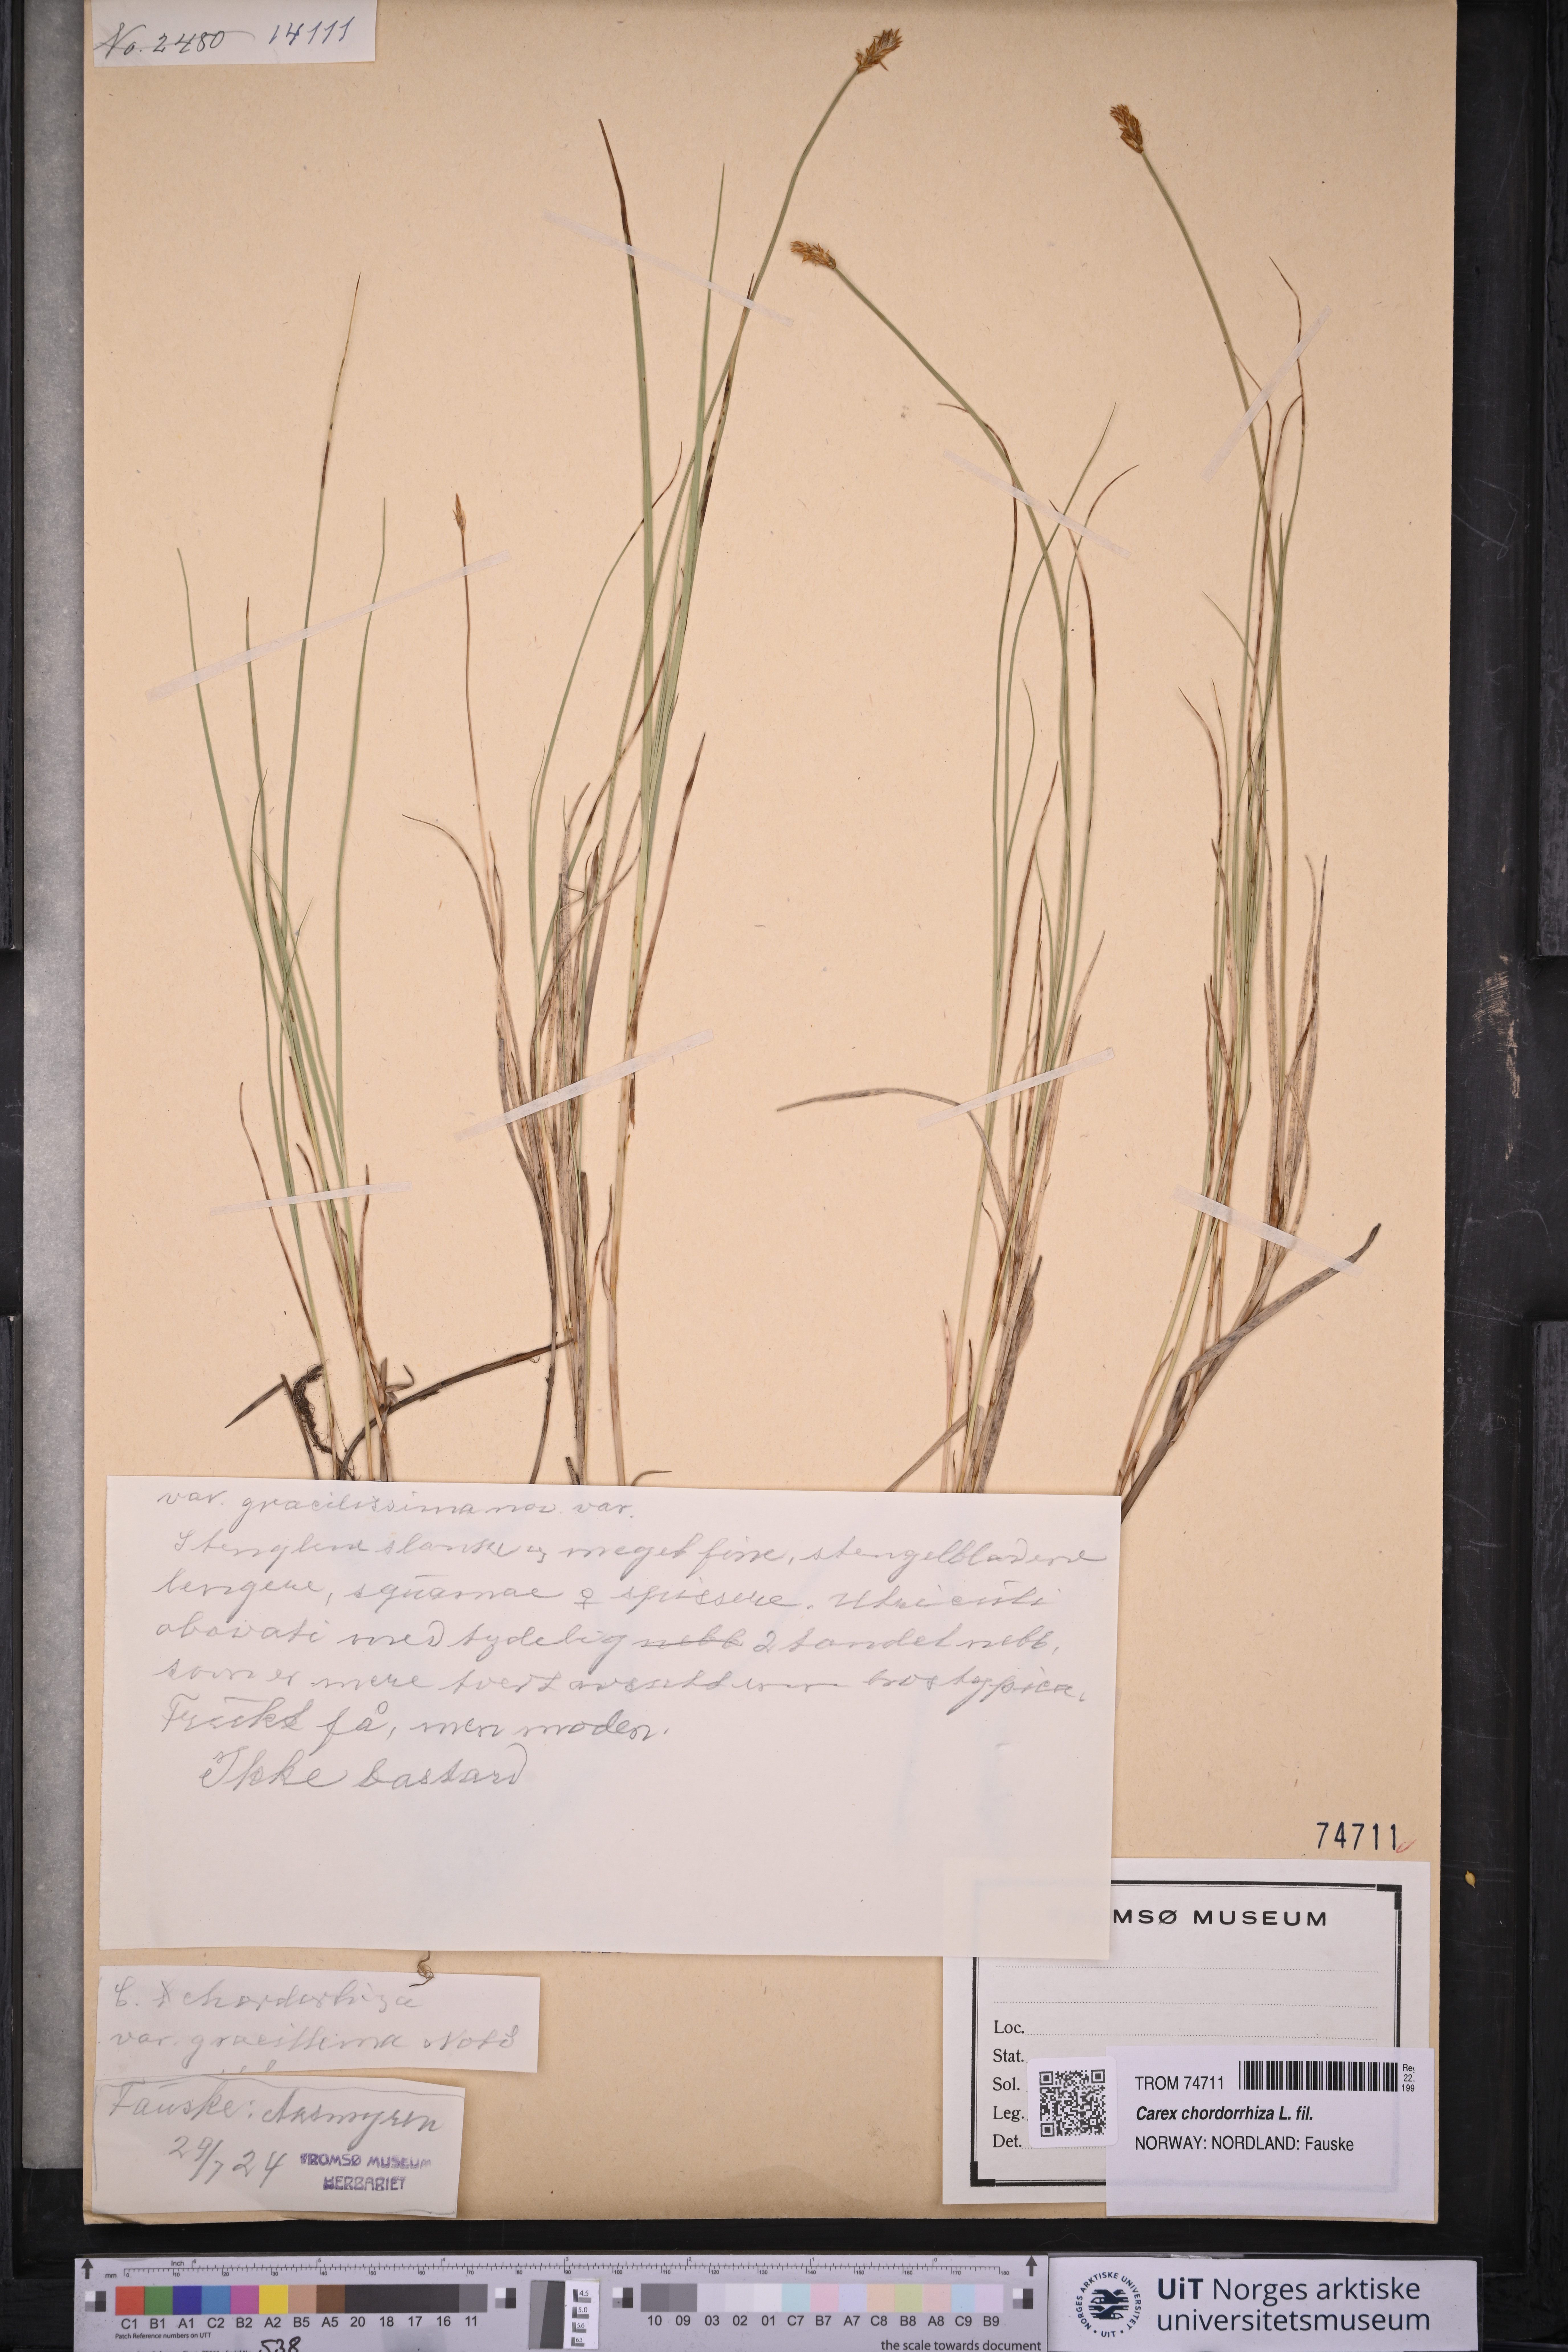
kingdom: Plantae
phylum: Tracheophyta
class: Liliopsida
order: Poales
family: Cyperaceae
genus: Carex
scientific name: Carex chordorrhiza
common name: String sedge
